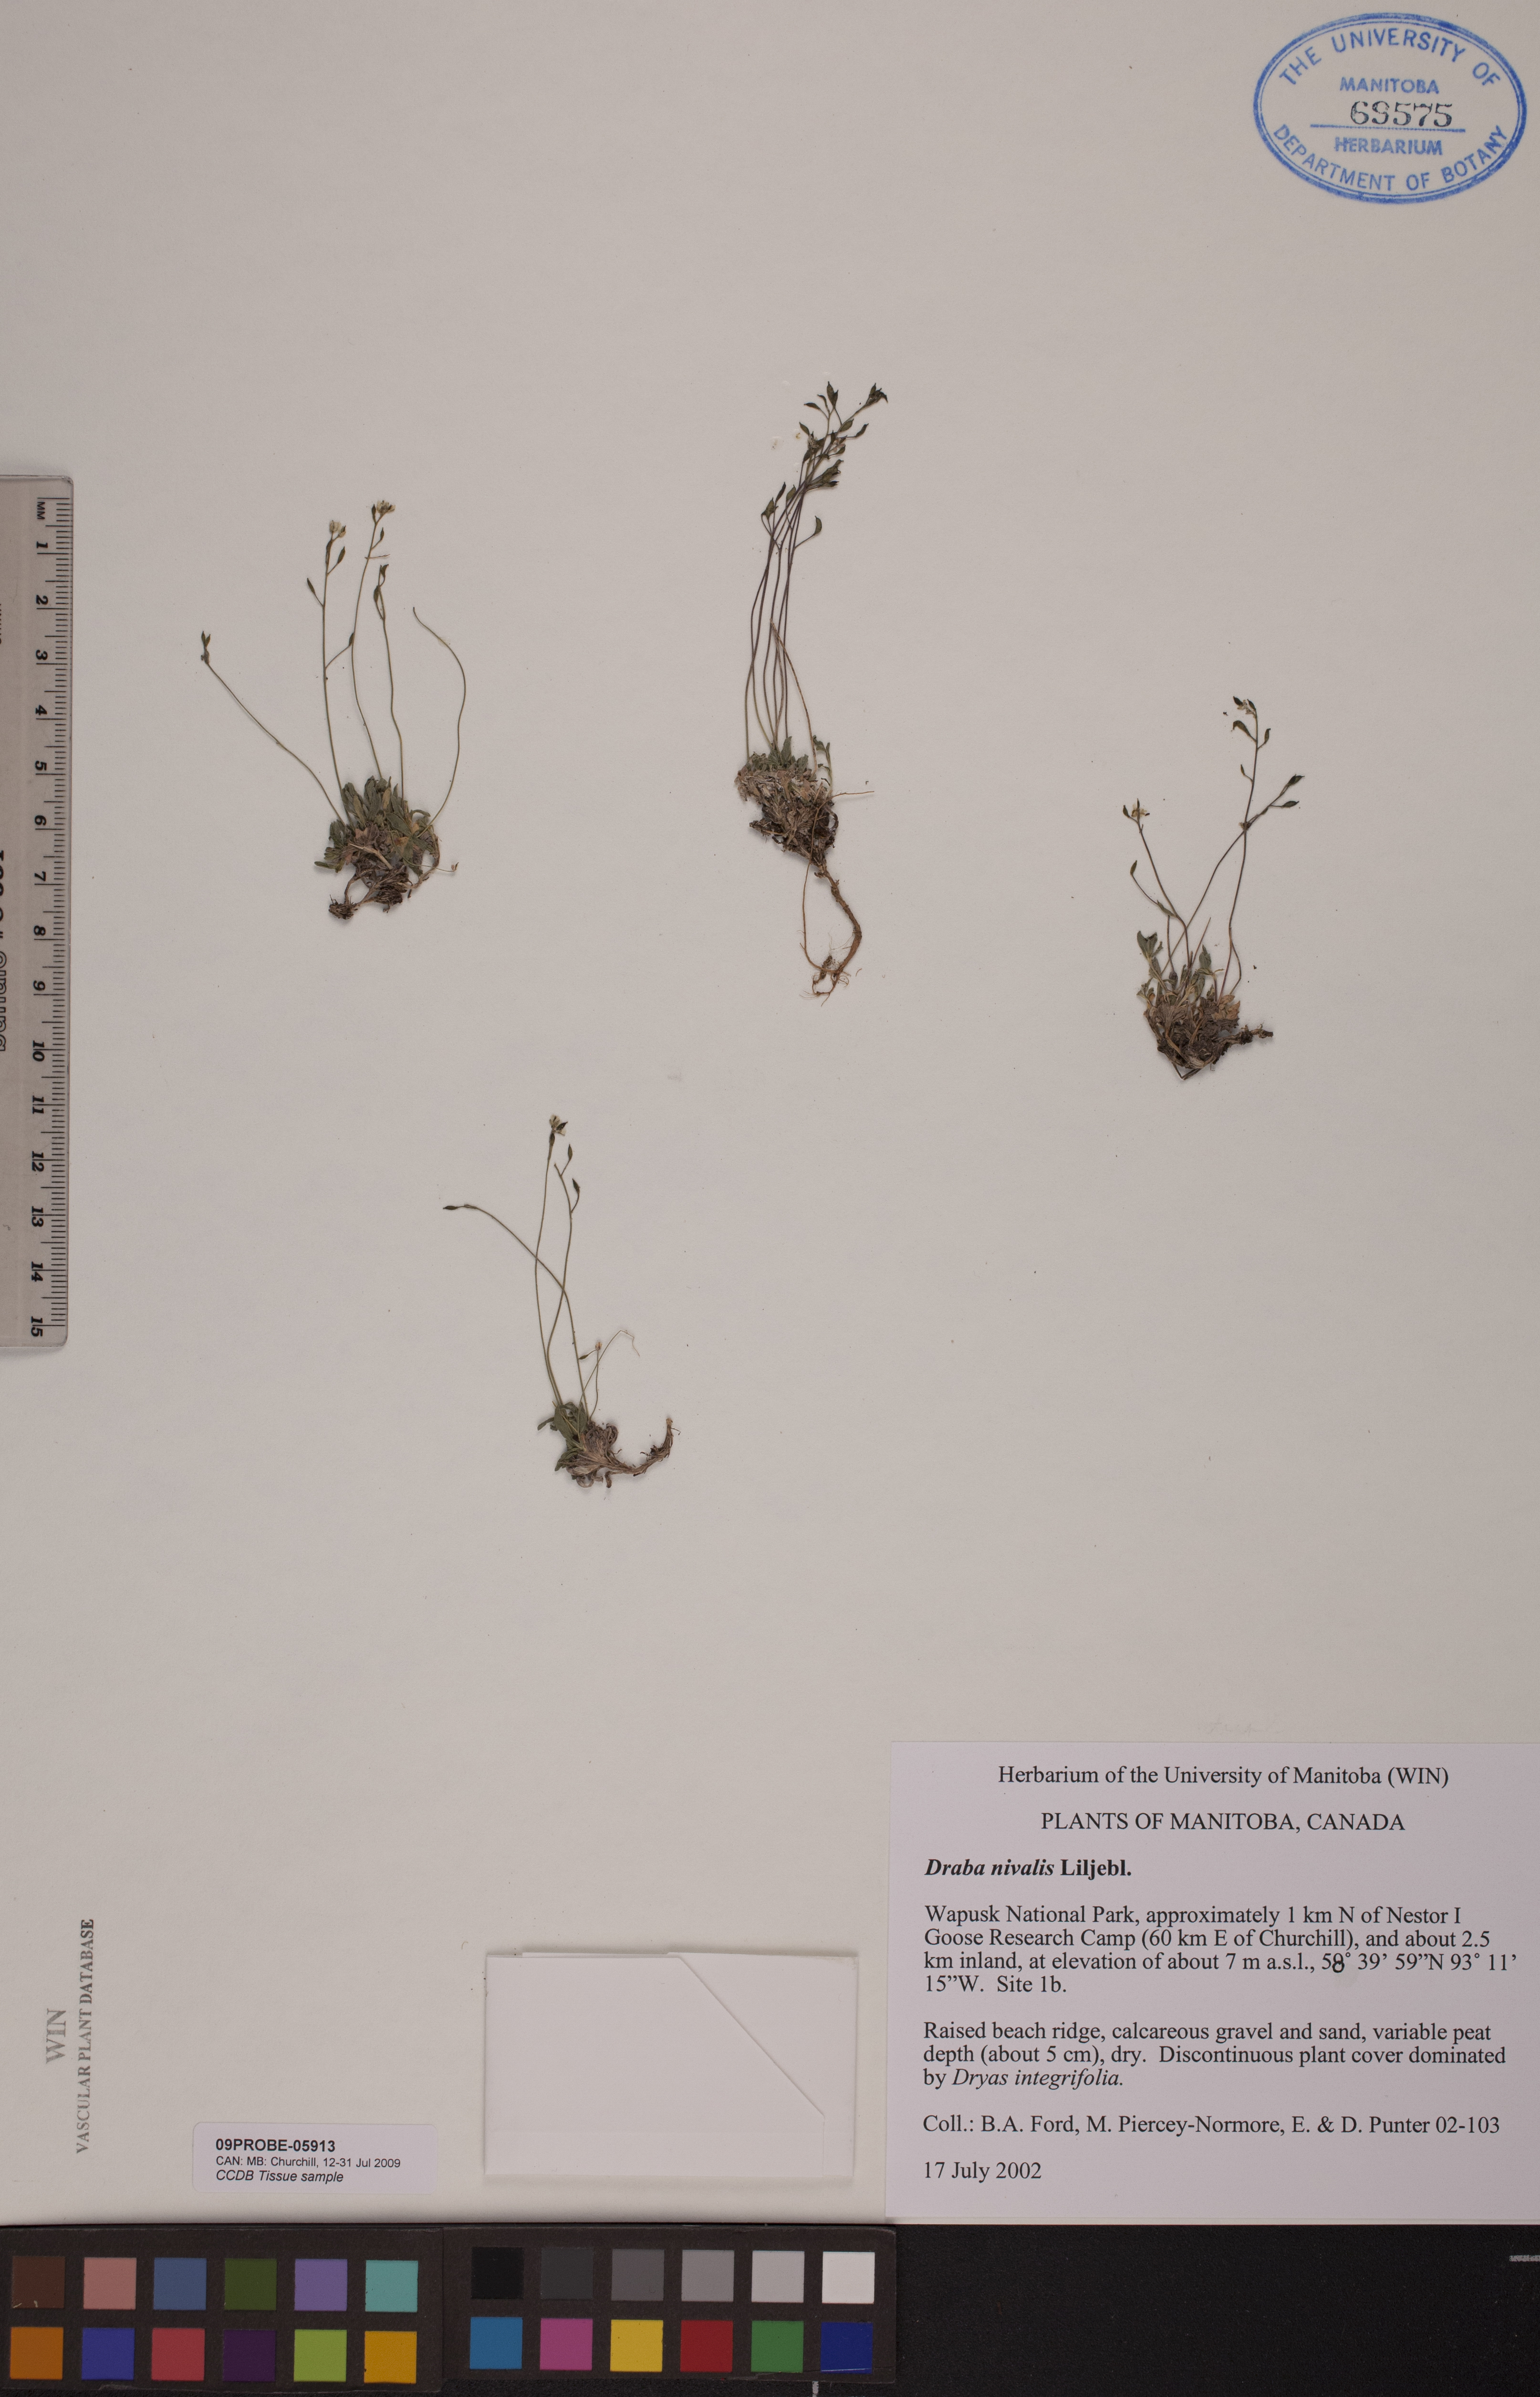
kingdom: Plantae
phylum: Tracheophyta
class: Magnoliopsida
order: Brassicales
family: Brassicaceae
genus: Draba
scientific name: Draba nivalis
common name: Snow draba
